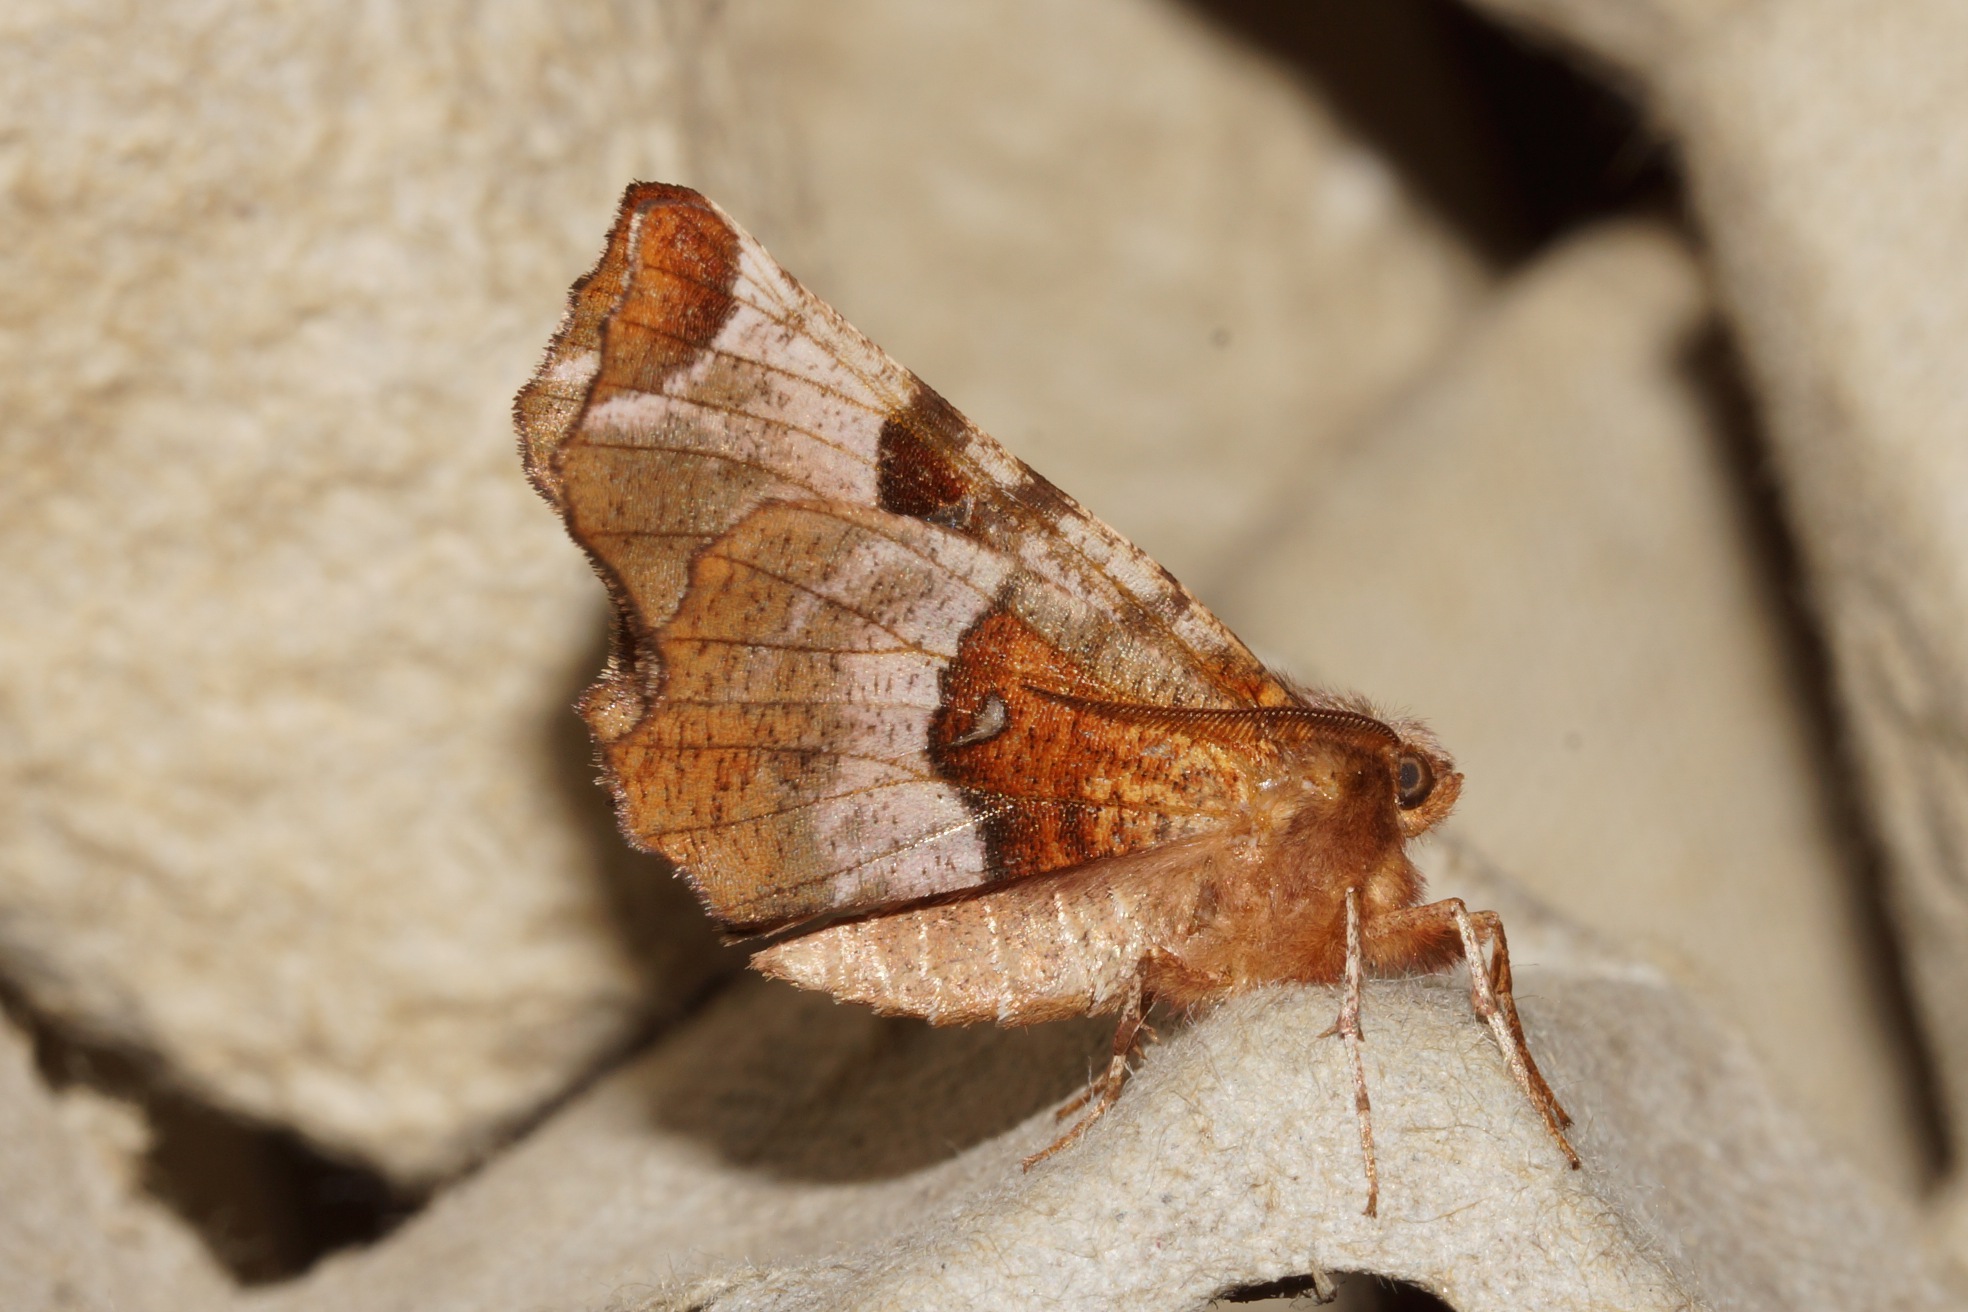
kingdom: Animalia
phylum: Arthropoda
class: Insecta
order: Lepidoptera
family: Geometridae
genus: Selenia
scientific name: Selenia tetralunaria
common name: Purpurbrun månemåler
